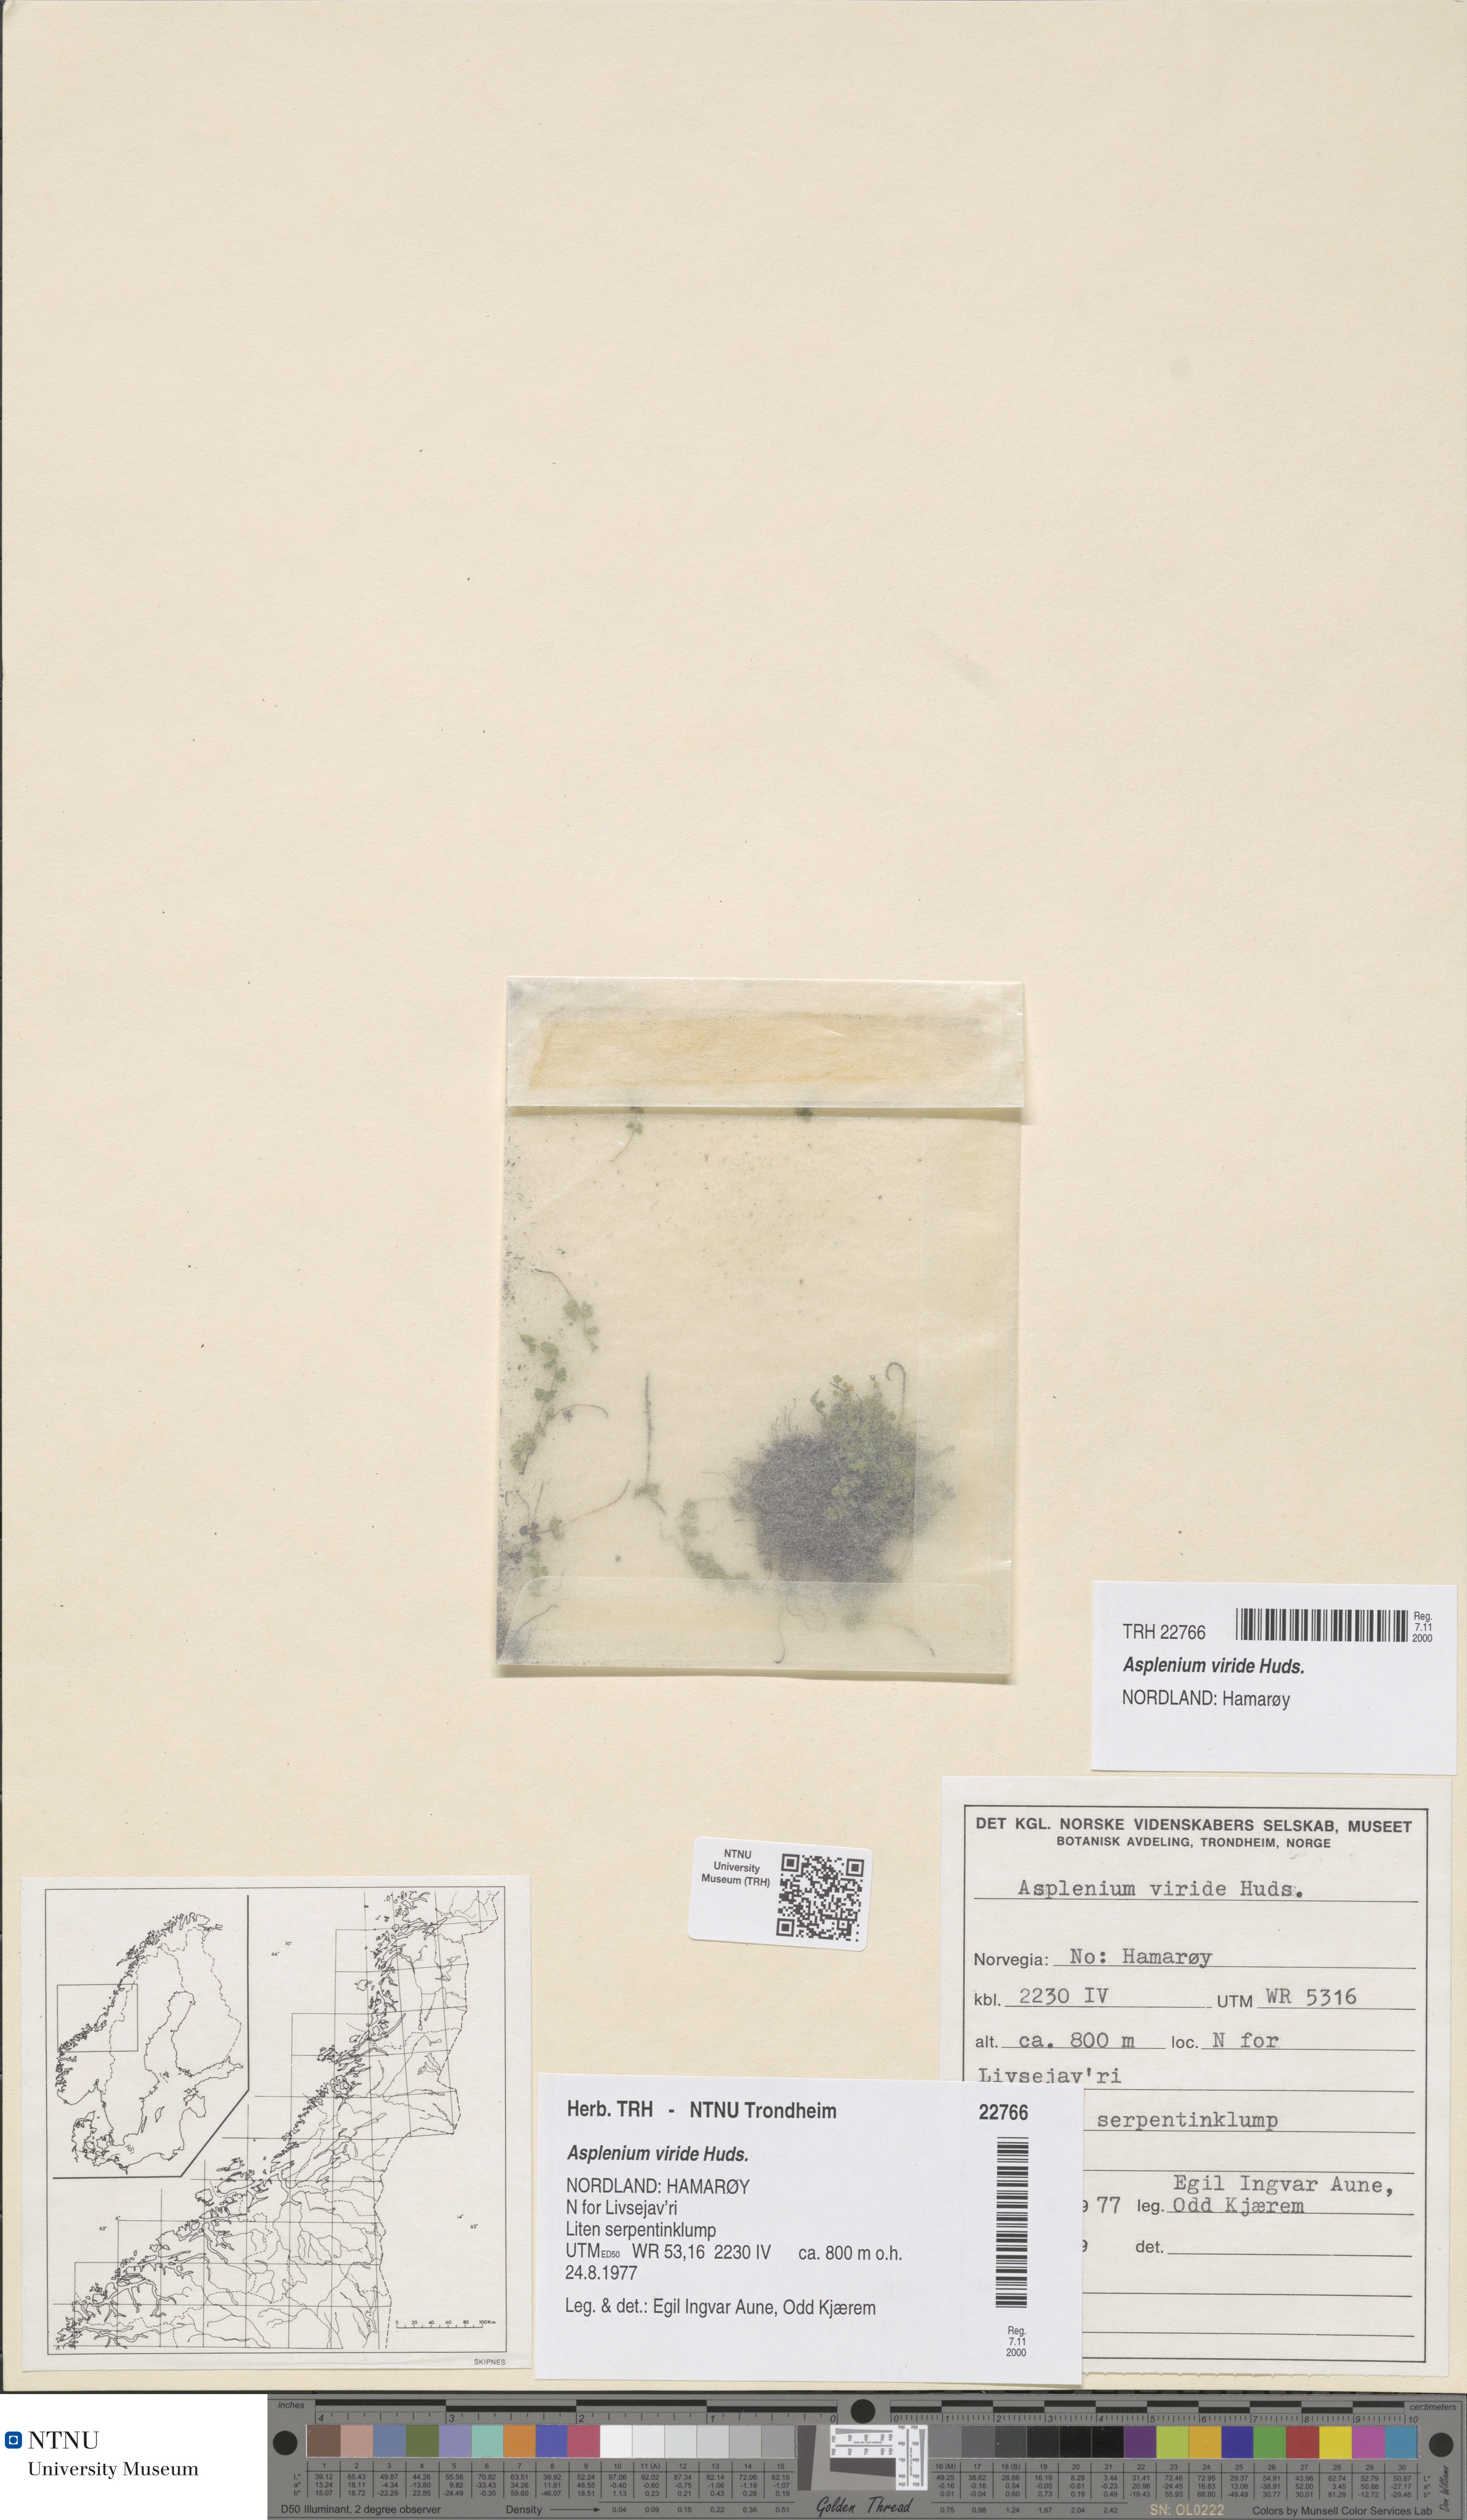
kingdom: Plantae
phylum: Tracheophyta
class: Polypodiopsida
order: Polypodiales
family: Aspleniaceae
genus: Asplenium
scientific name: Asplenium viride
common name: Green spleenwort
